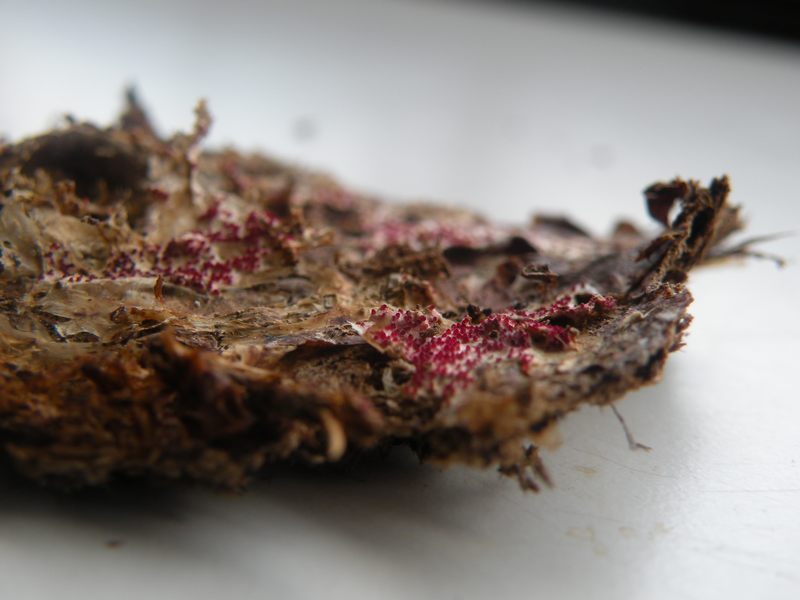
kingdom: Fungi
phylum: Ascomycota
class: Sordariomycetes
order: Hypocreales
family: Hypocreaceae
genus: Hypomyces
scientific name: Hypomyces rosellus
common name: rosa snylteskorpe
